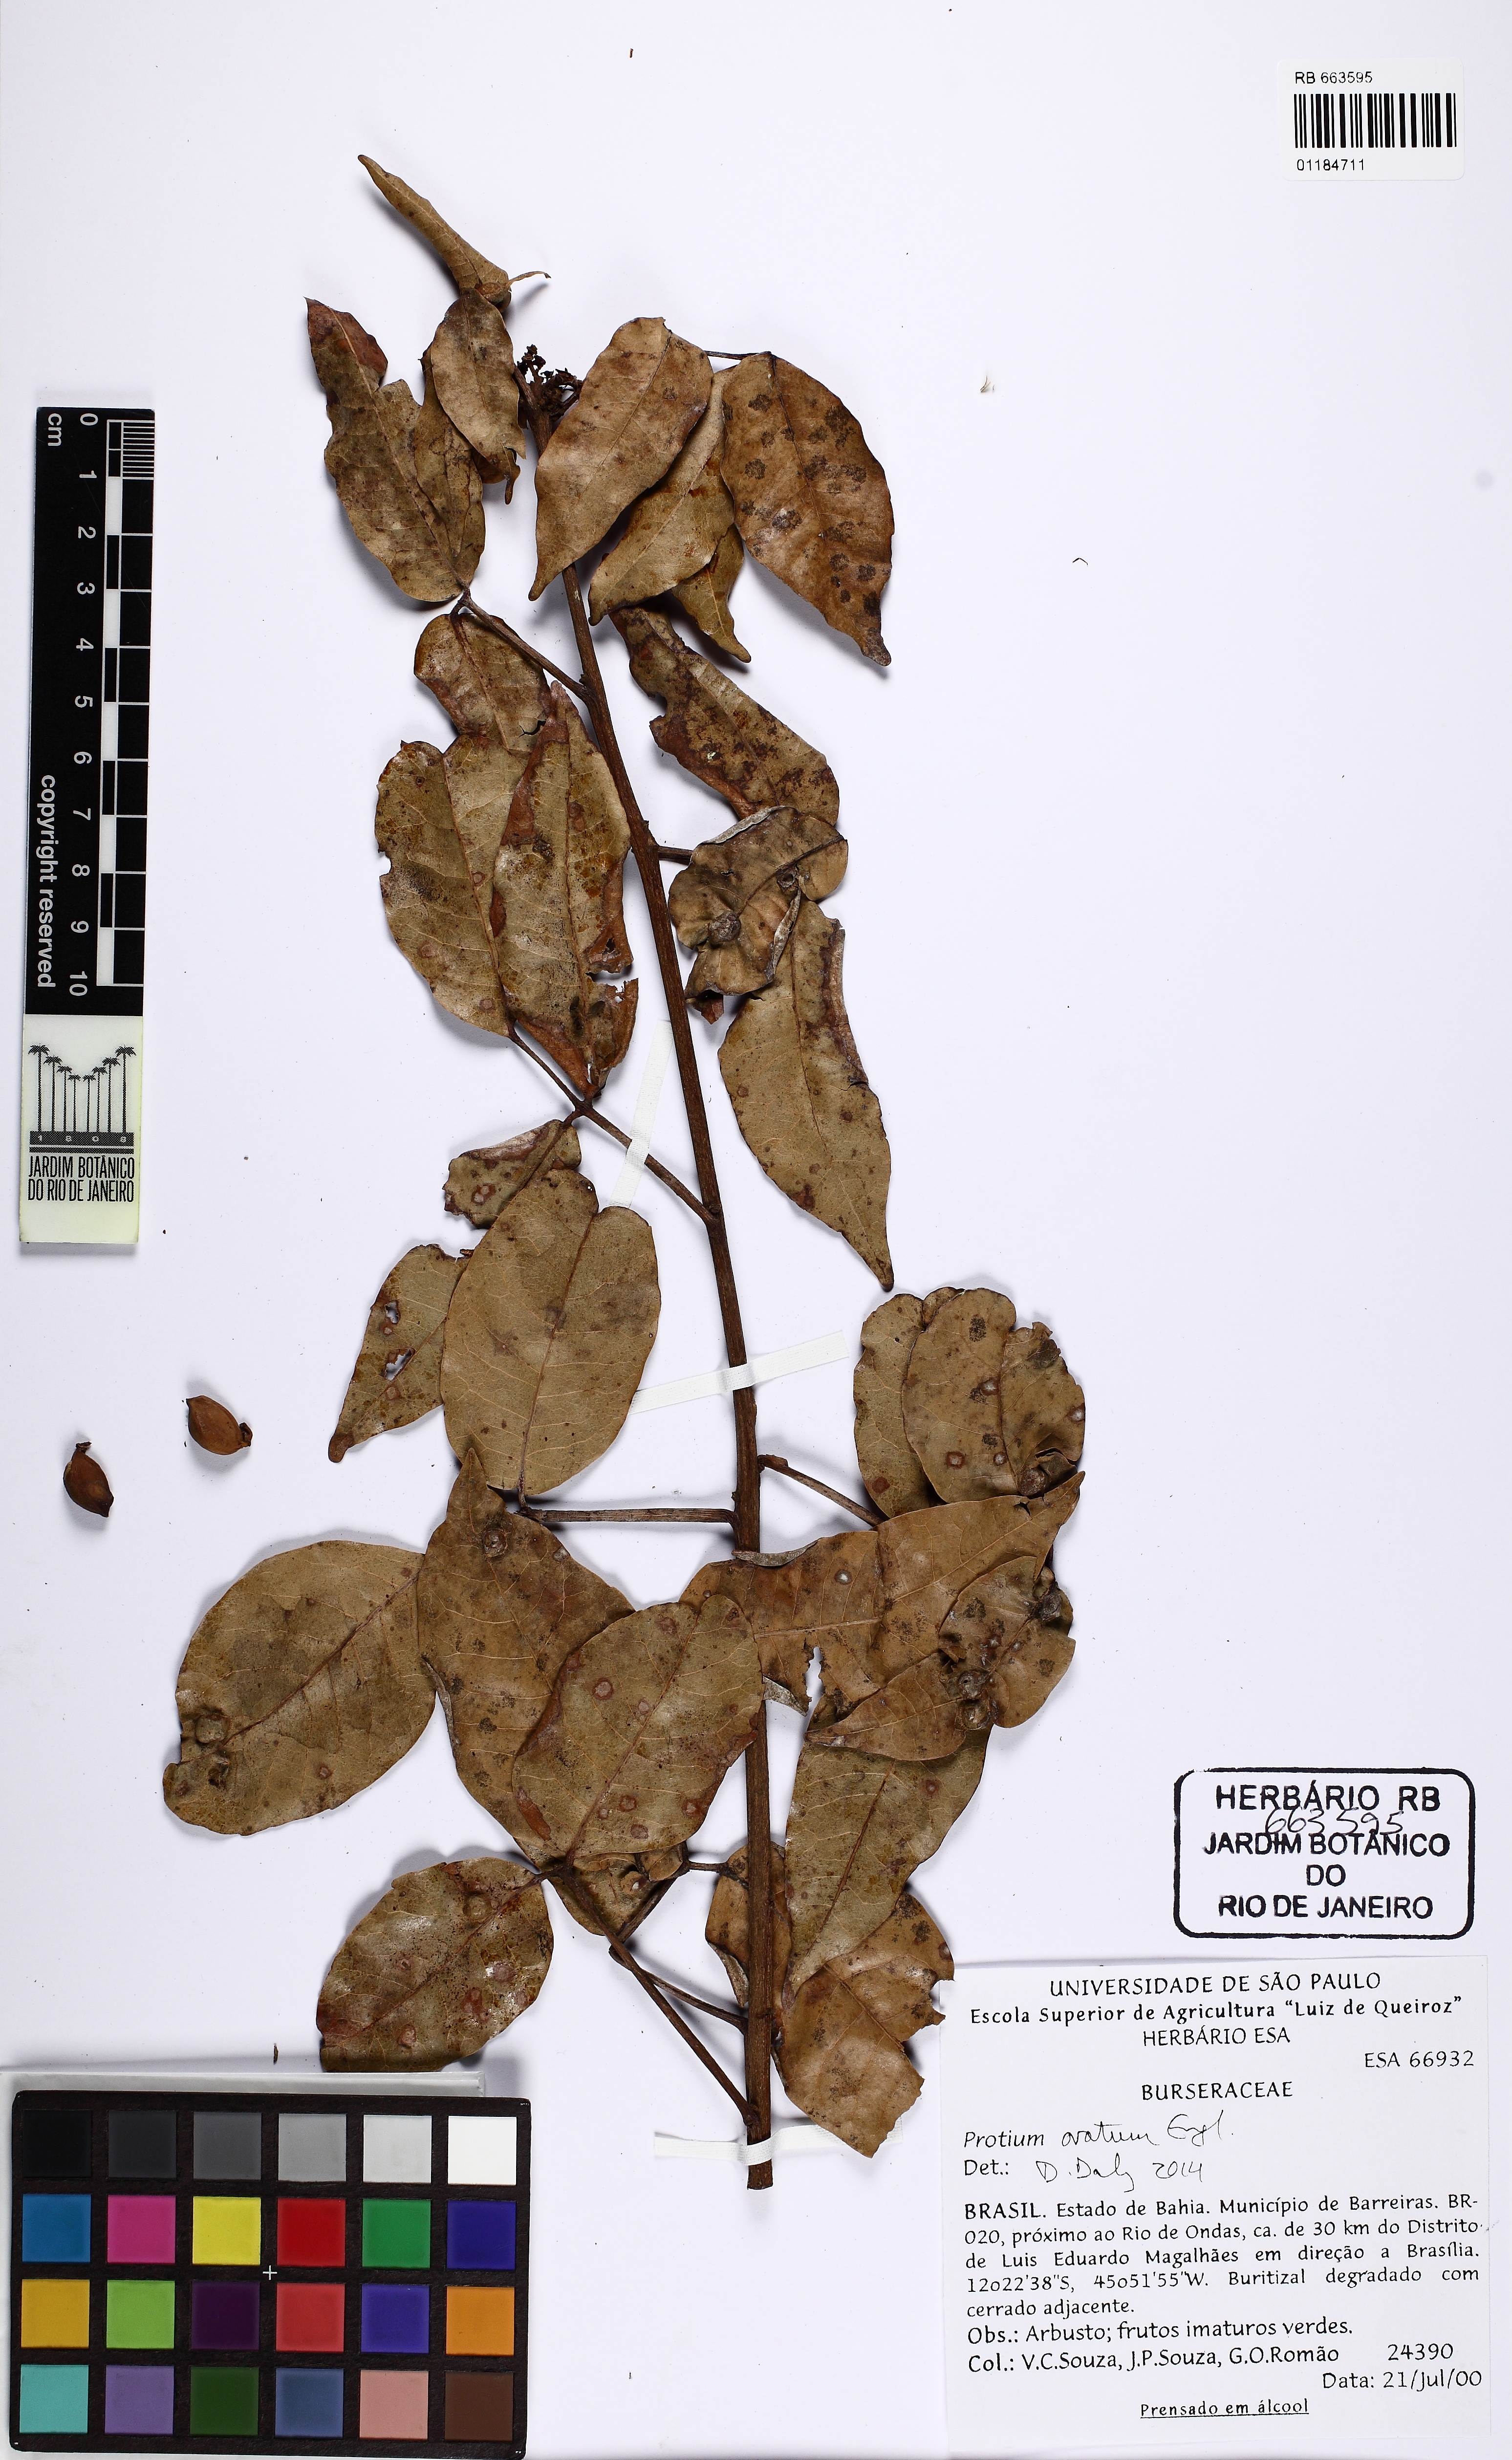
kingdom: Plantae
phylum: Tracheophyta
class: Magnoliopsida
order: Sapindales
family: Burseraceae
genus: Protium
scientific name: Protium ovatum
